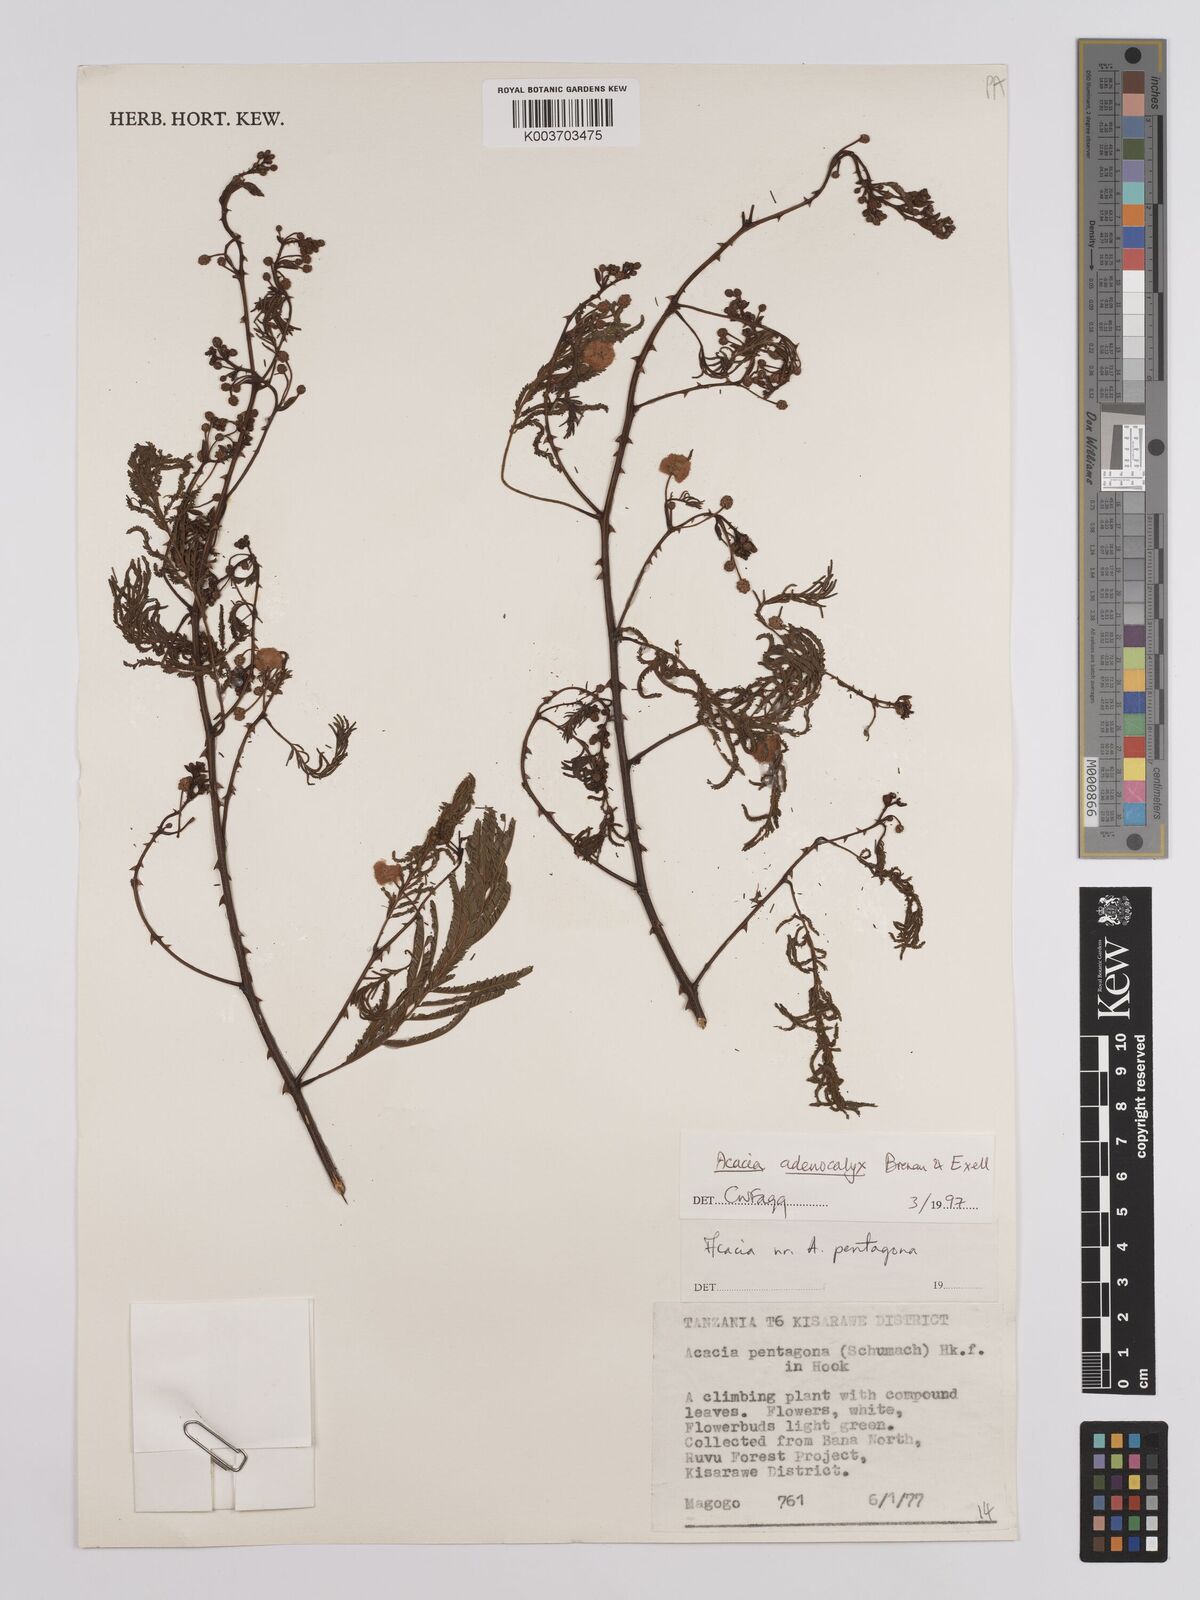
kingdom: Plantae
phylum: Tracheophyta
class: Magnoliopsida
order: Fabales
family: Fabaceae
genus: Senegalia
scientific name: Senegalia adenocalyx
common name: Pfurura
